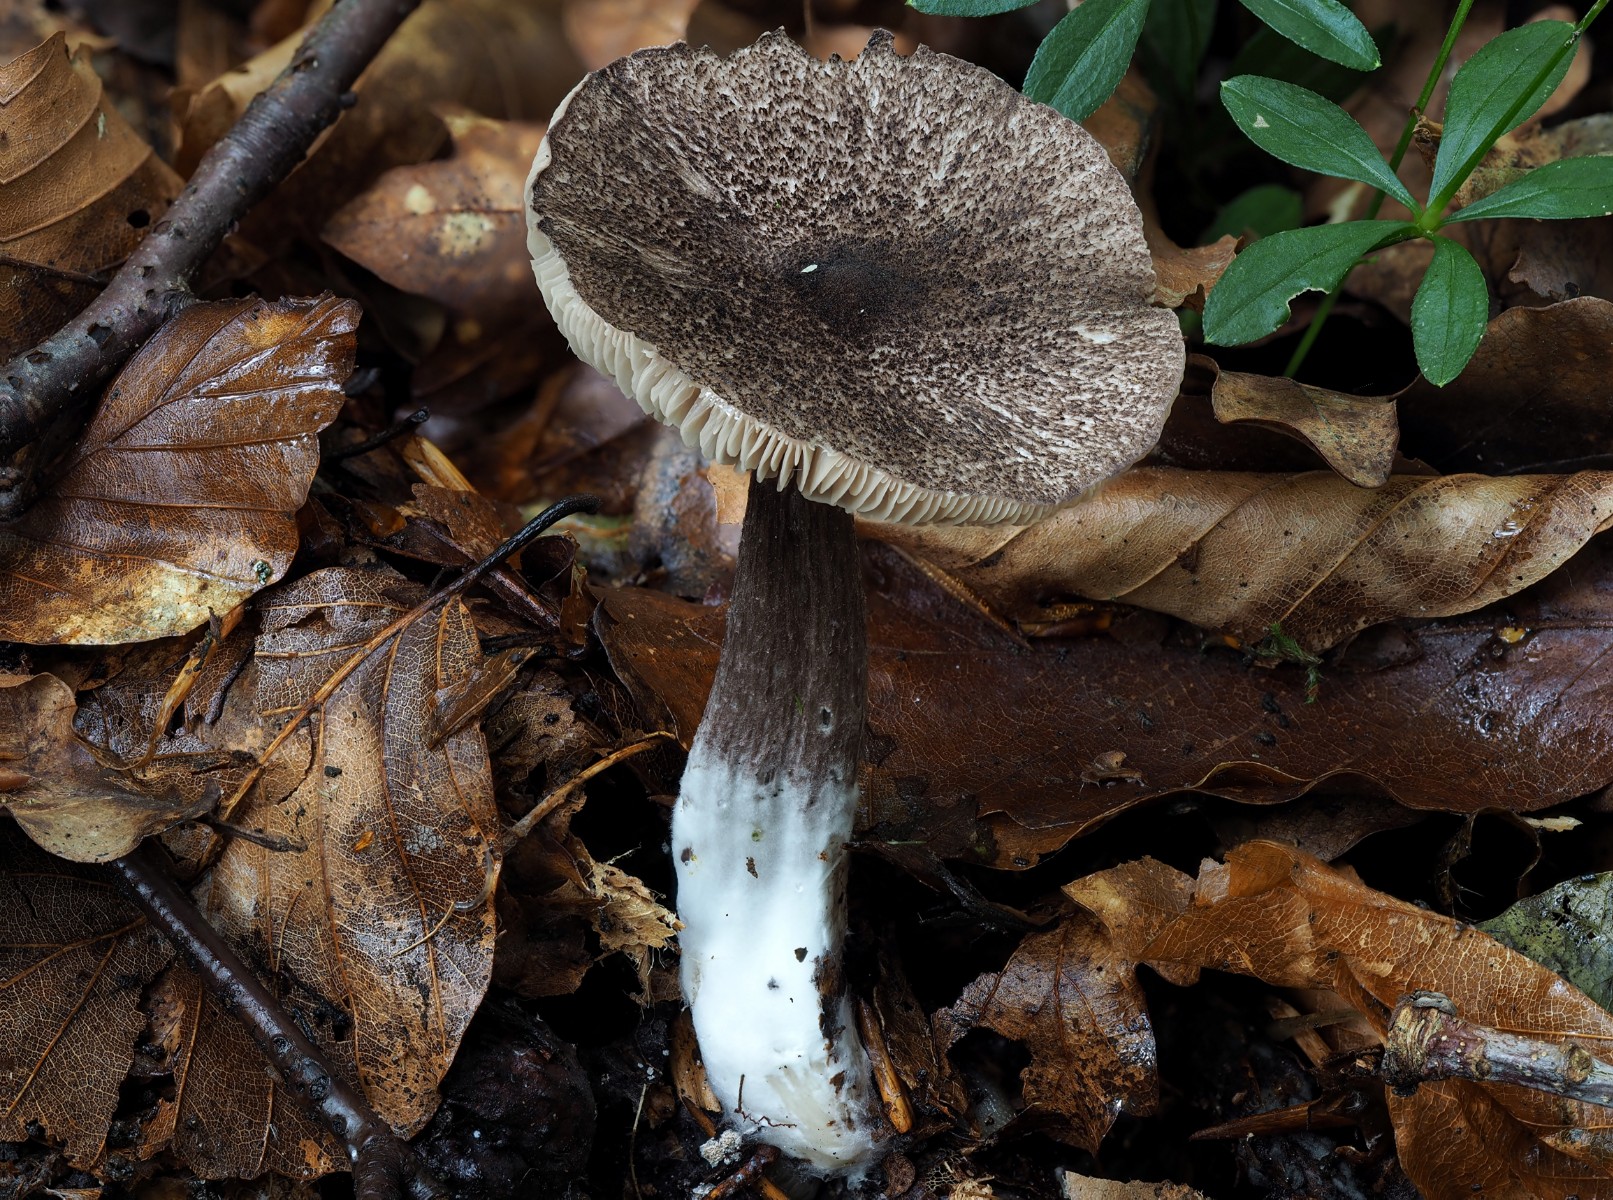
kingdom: Fungi
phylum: Basidiomycota
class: Agaricomycetes
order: Agaricales
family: Entolomataceae
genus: Entoloma
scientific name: Entoloma waverenii
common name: trævlet rødblad
